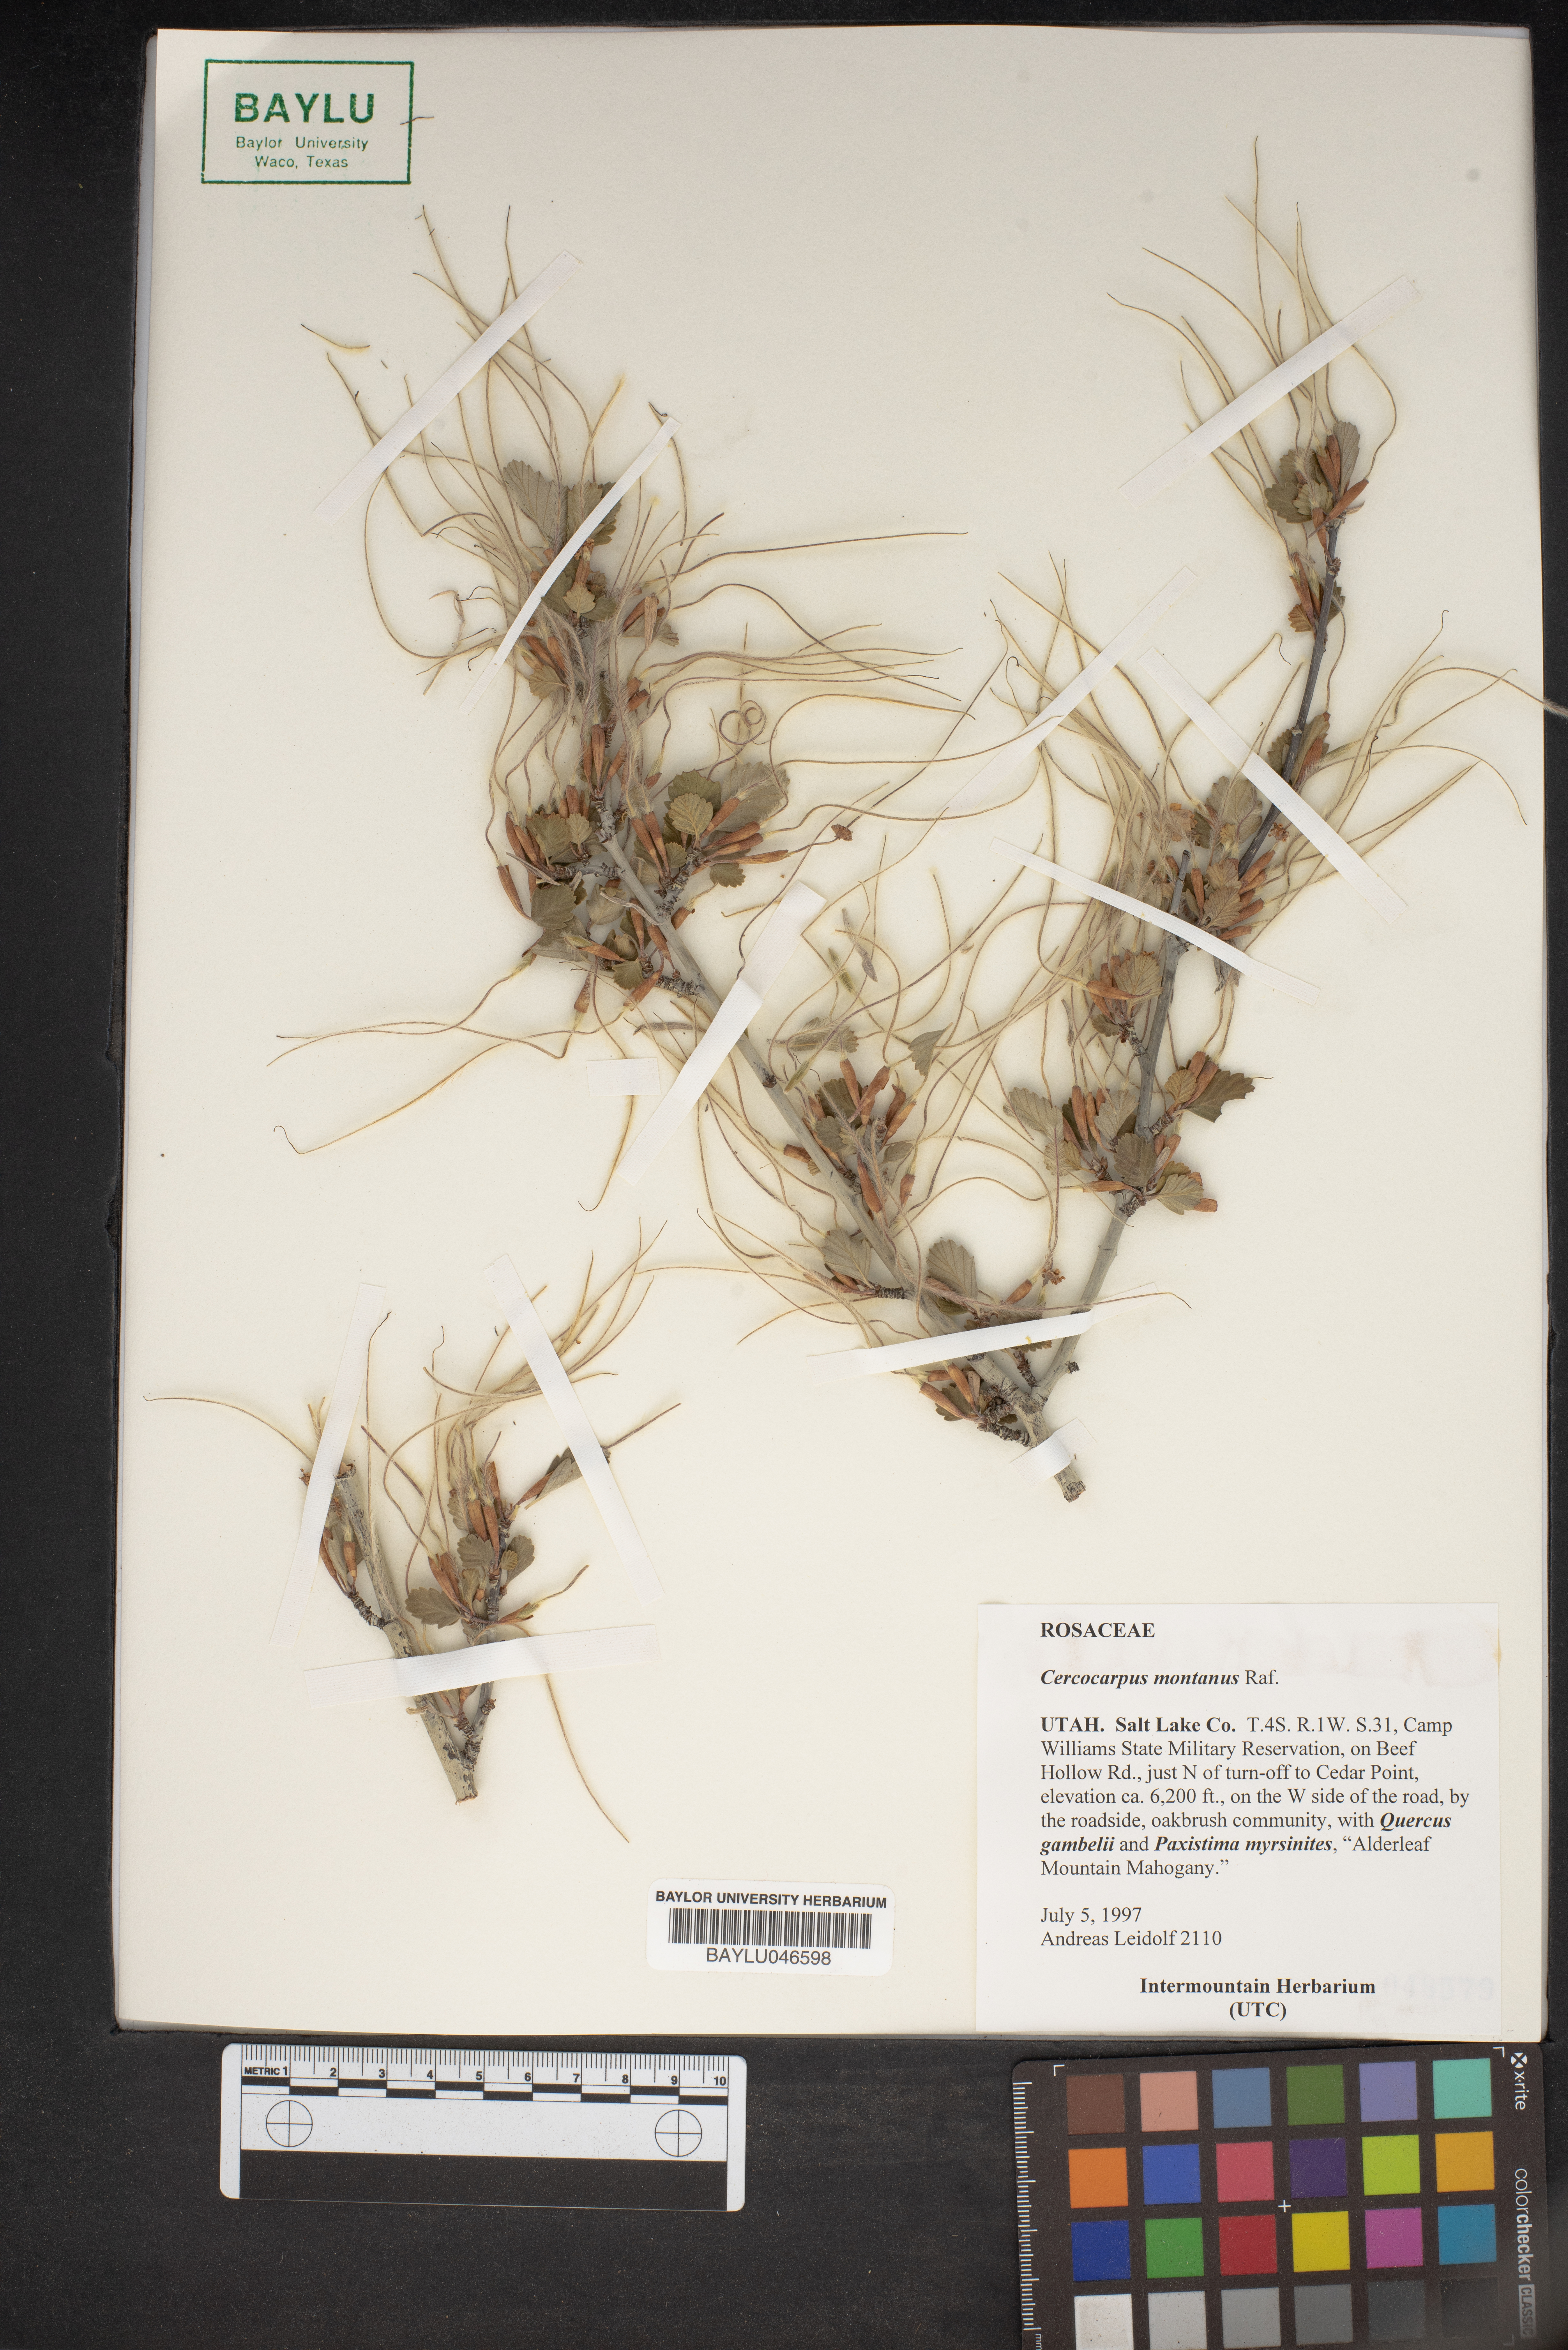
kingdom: Plantae
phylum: Tracheophyta
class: Magnoliopsida
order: Rosales
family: Rosaceae
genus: Cercocarpus
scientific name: Cercocarpus montanus
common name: Alder-leaf cercocarpus
